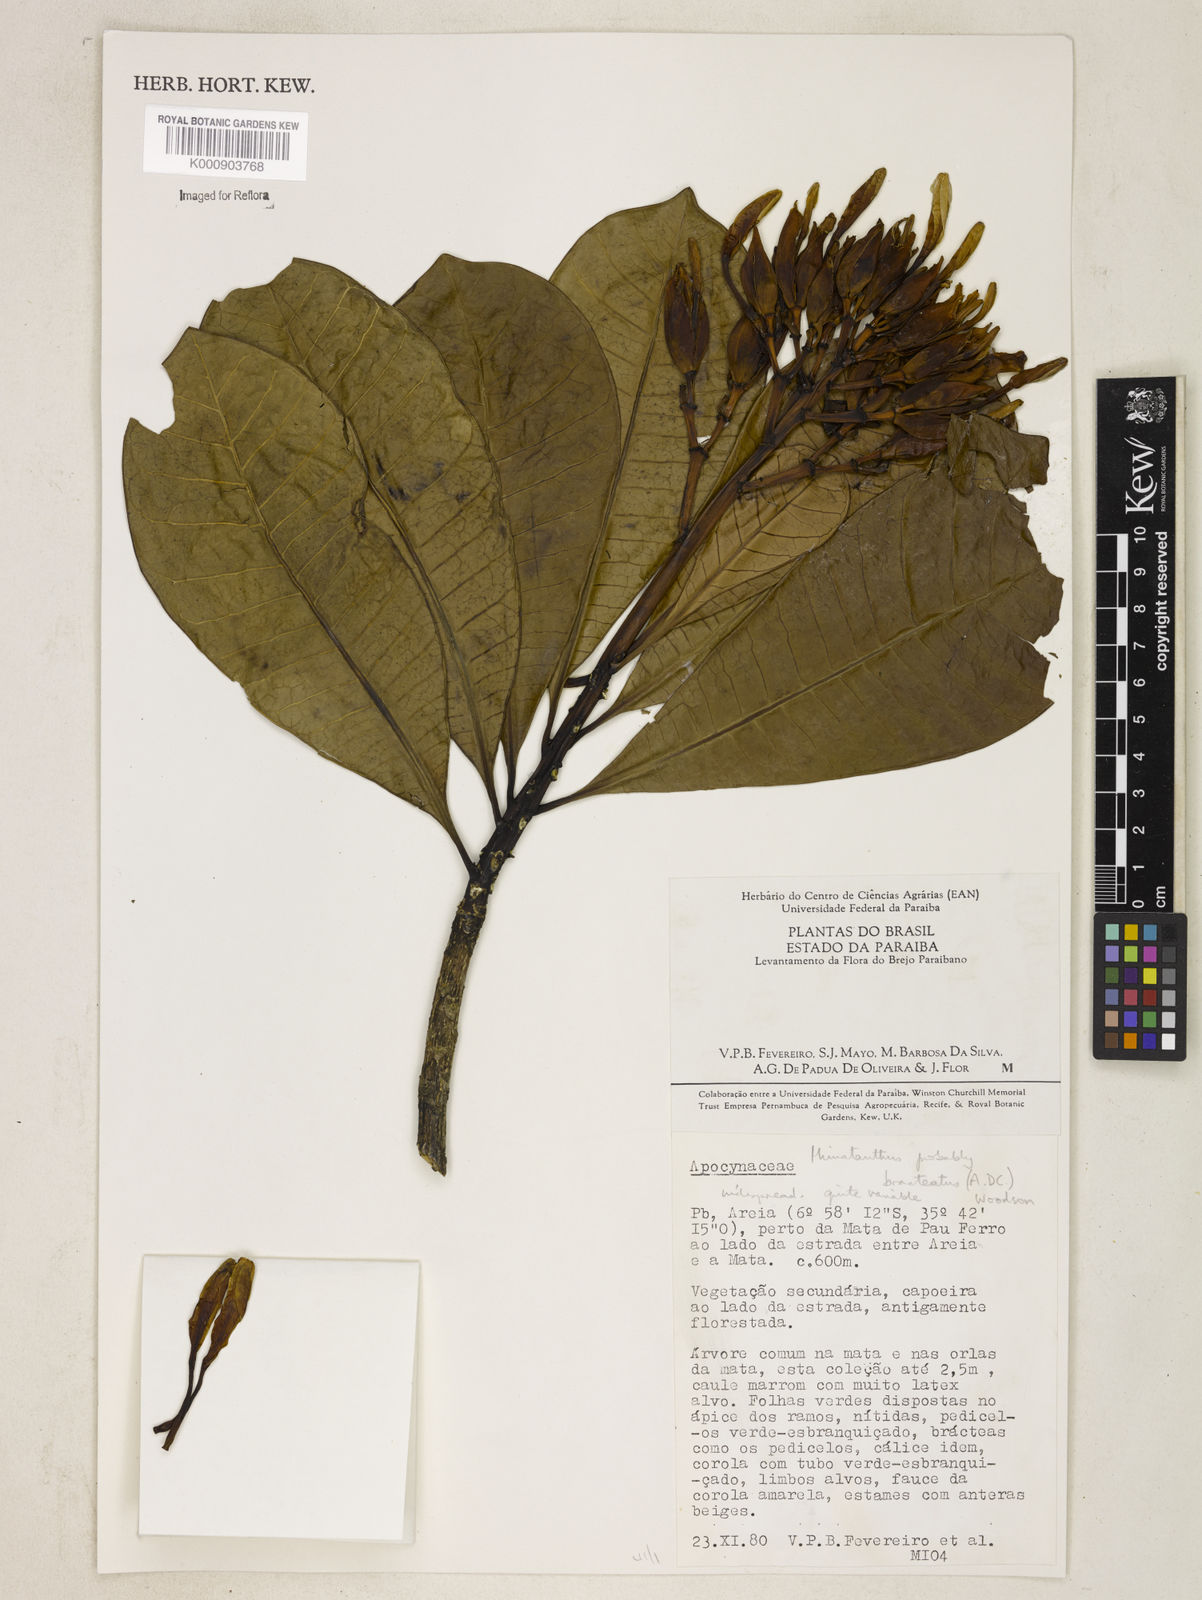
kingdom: Plantae
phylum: Tracheophyta
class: Magnoliopsida
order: Gentianales
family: Apocynaceae
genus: Himatanthus
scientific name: Himatanthus bracteatus
